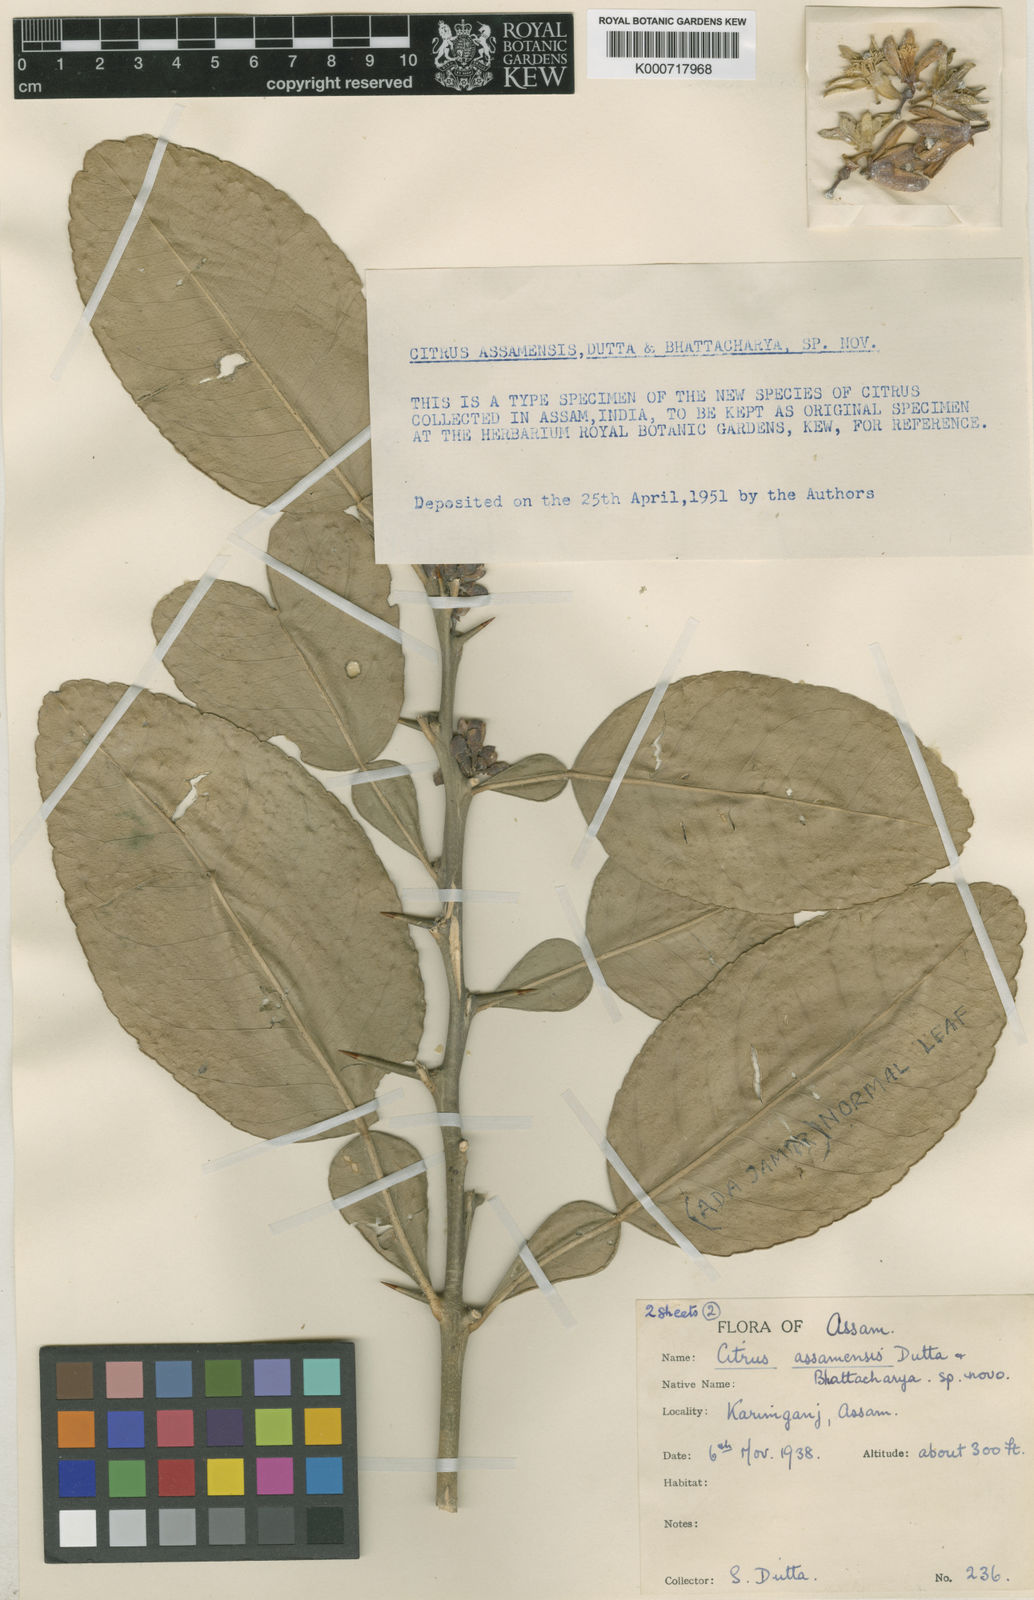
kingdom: Plantae
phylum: Tracheophyta
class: Magnoliopsida
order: Sapindales
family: Rutaceae
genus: Citrus
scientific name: Citrus assamensis
